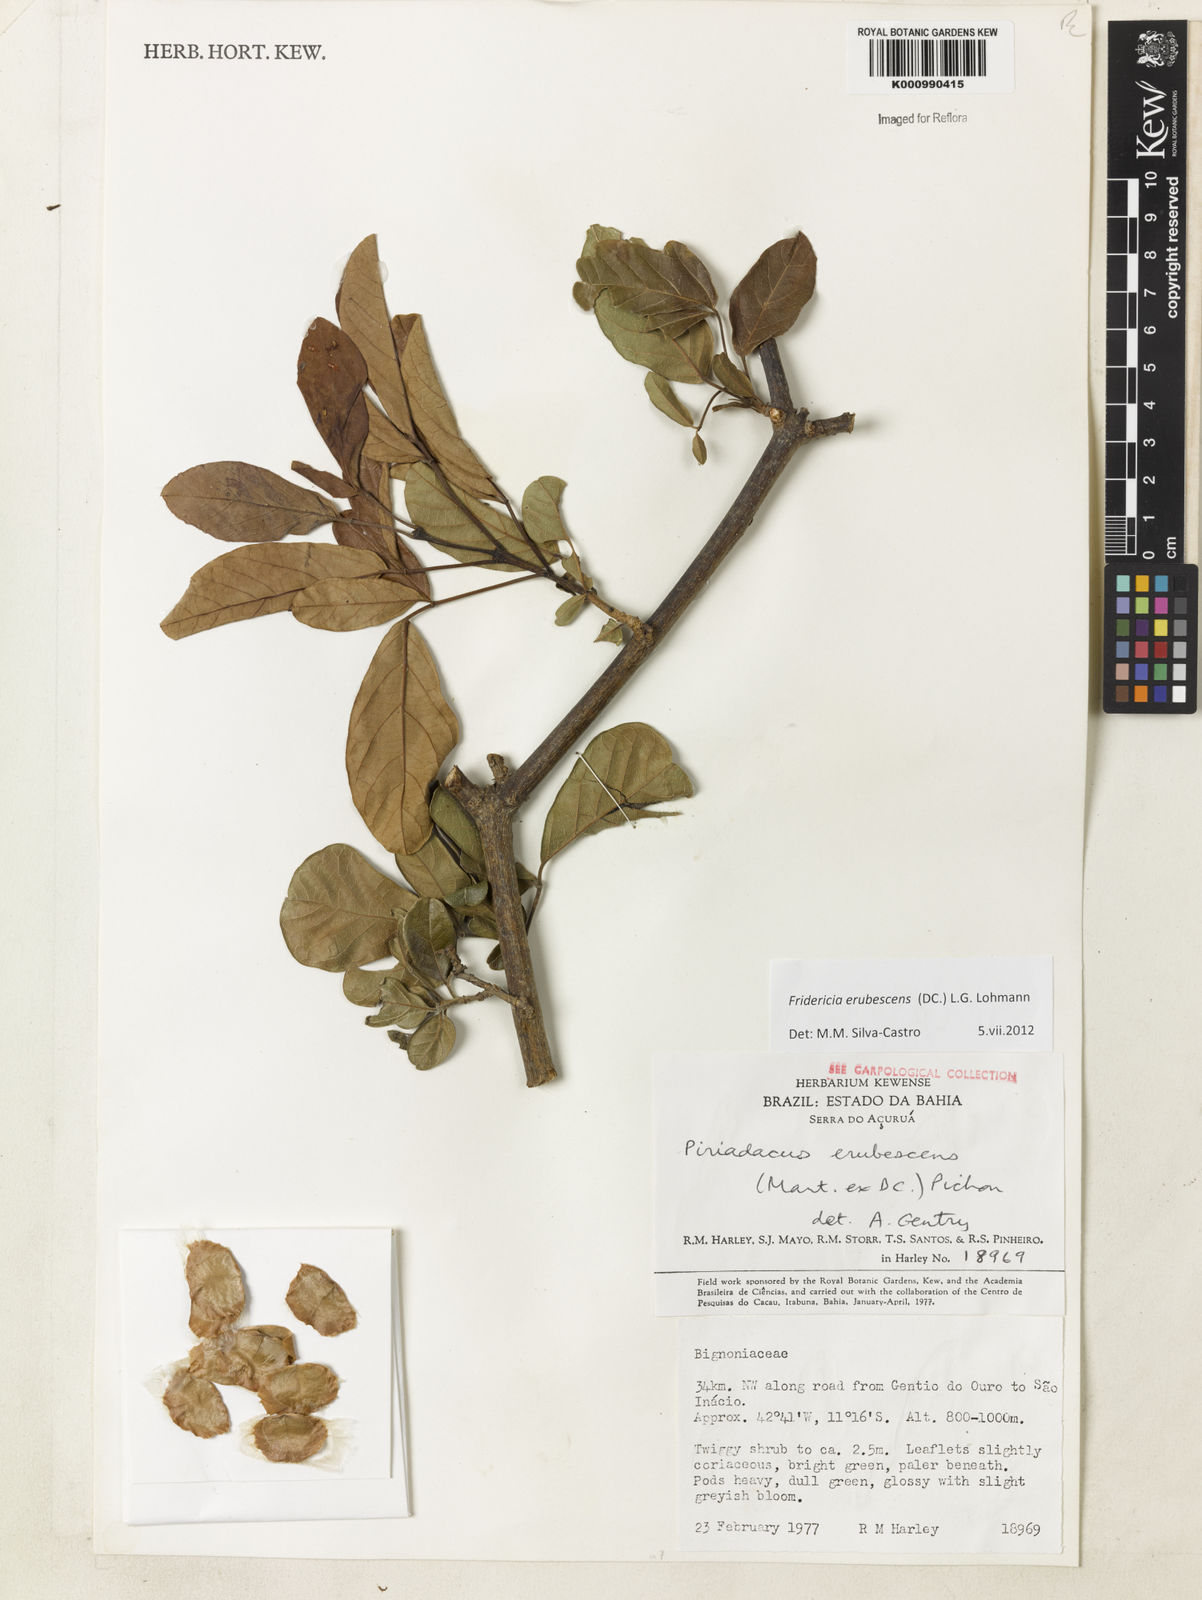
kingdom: Plantae
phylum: Tracheophyta
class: Magnoliopsida
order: Lamiales
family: Bignoniaceae
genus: Fridericia
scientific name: Fridericia erubescens
